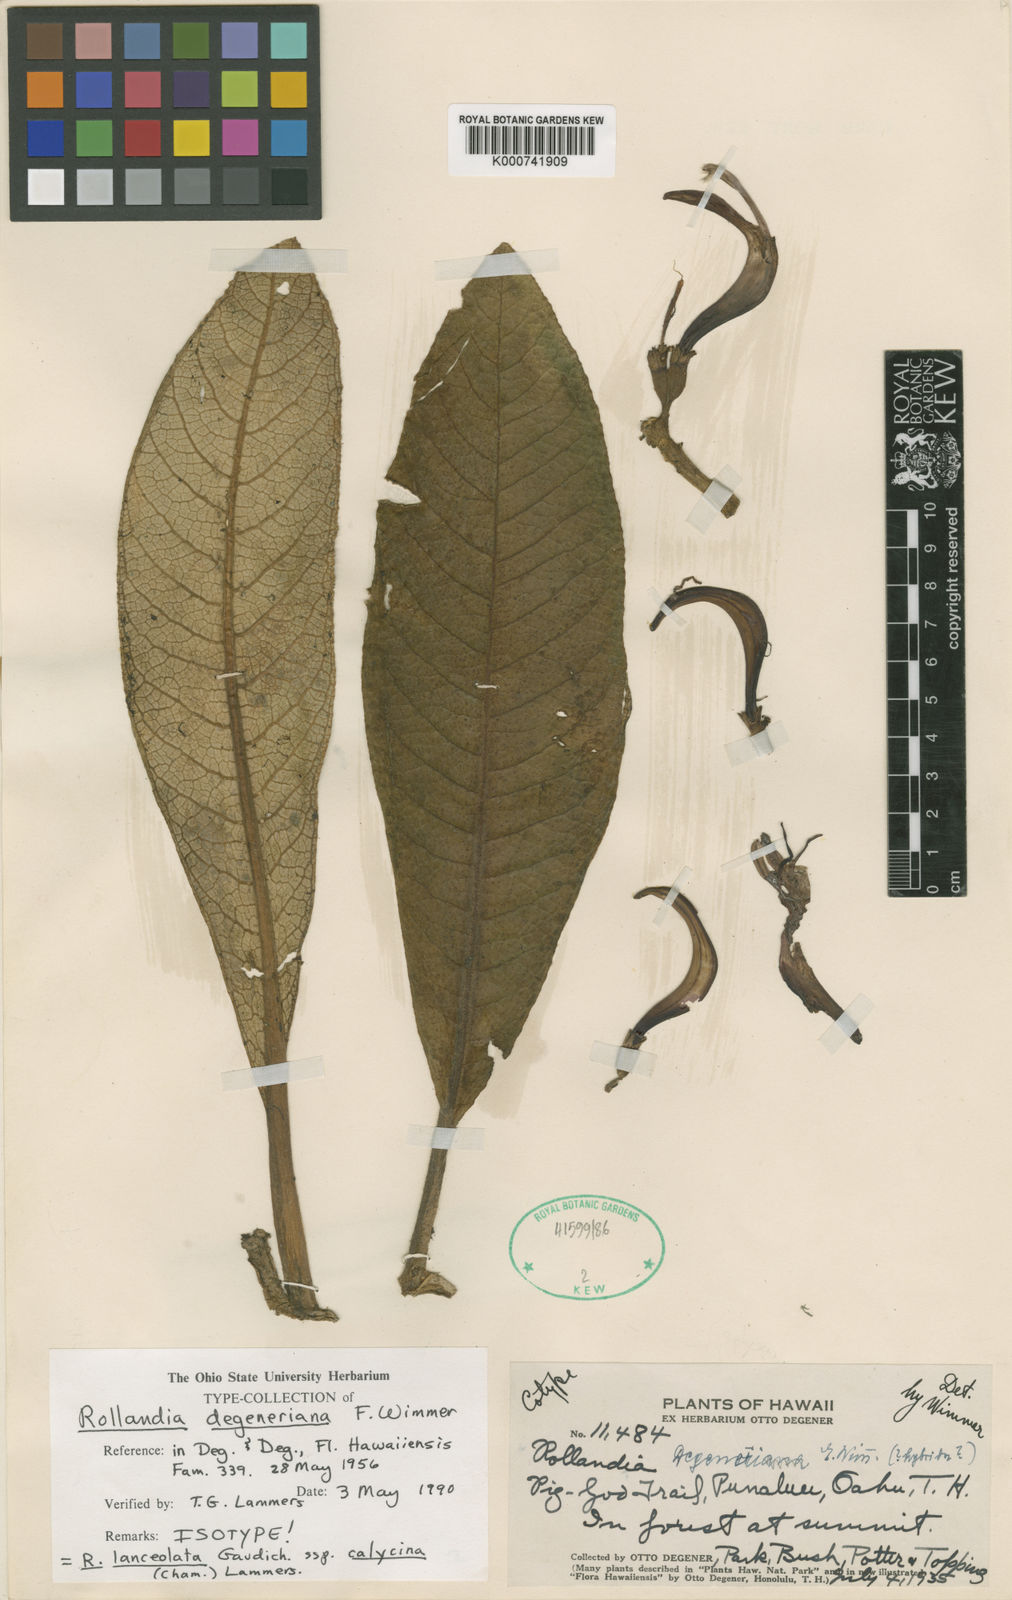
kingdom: Plantae
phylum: Tracheophyta
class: Magnoliopsida
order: Asterales
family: Campanulaceae
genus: Cyanea
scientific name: Cyanea lanceolata
